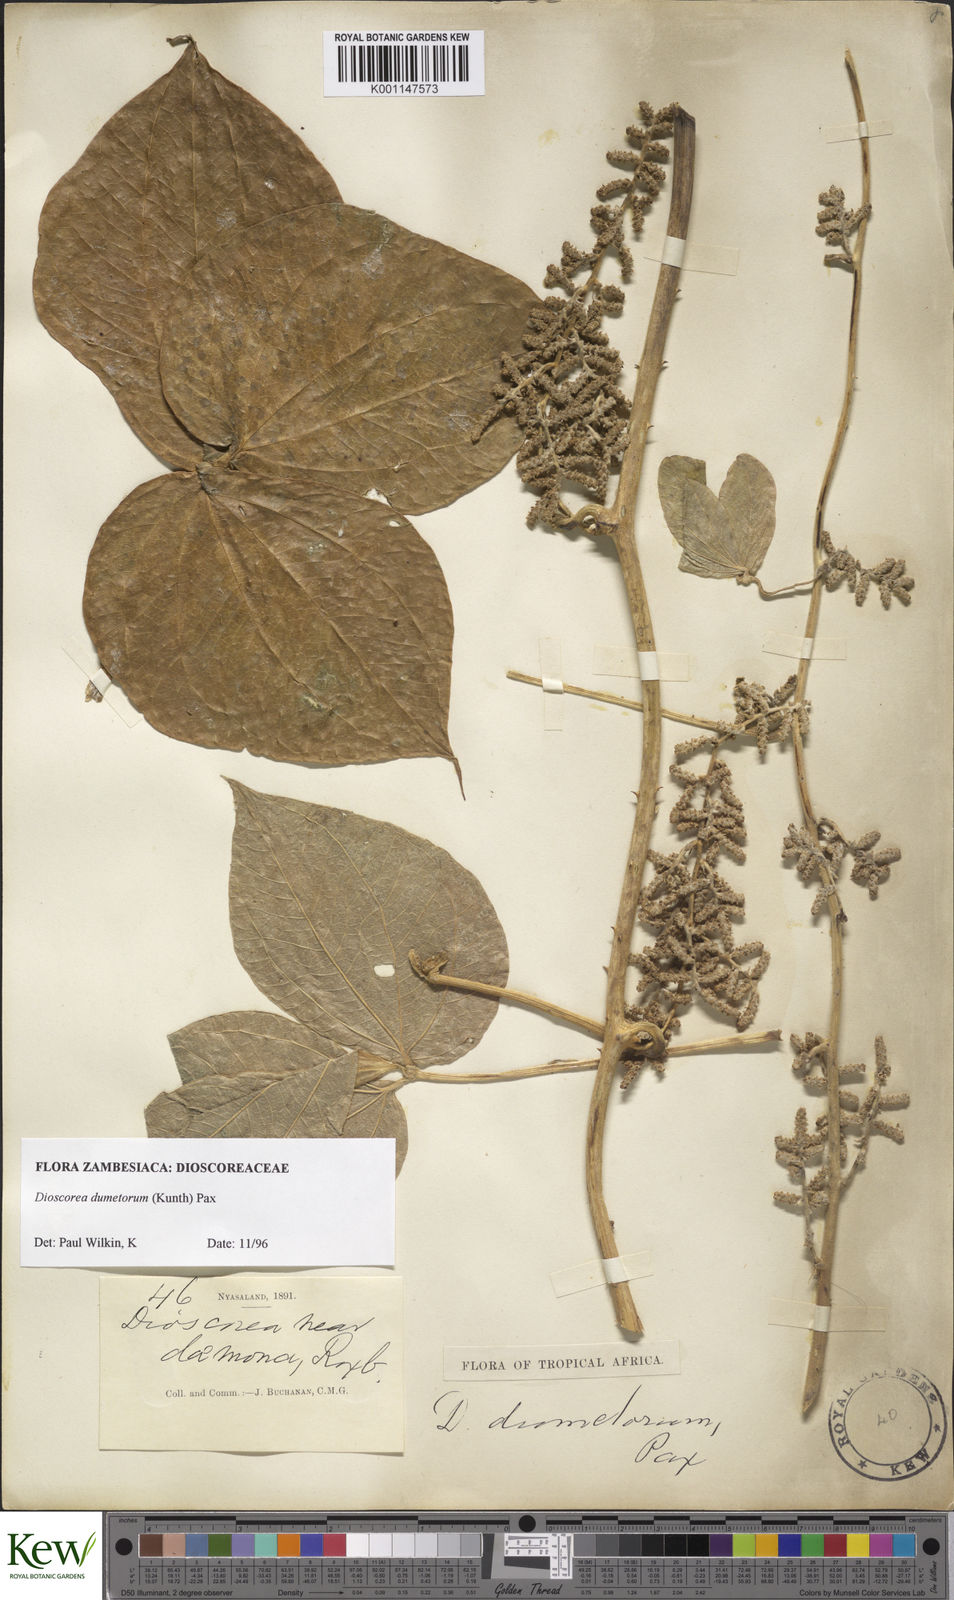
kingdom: Plantae
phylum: Tracheophyta
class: Liliopsida
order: Dioscoreales
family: Dioscoreaceae
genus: Dioscorea
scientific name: Dioscorea dumetorum
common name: African bitter yam
